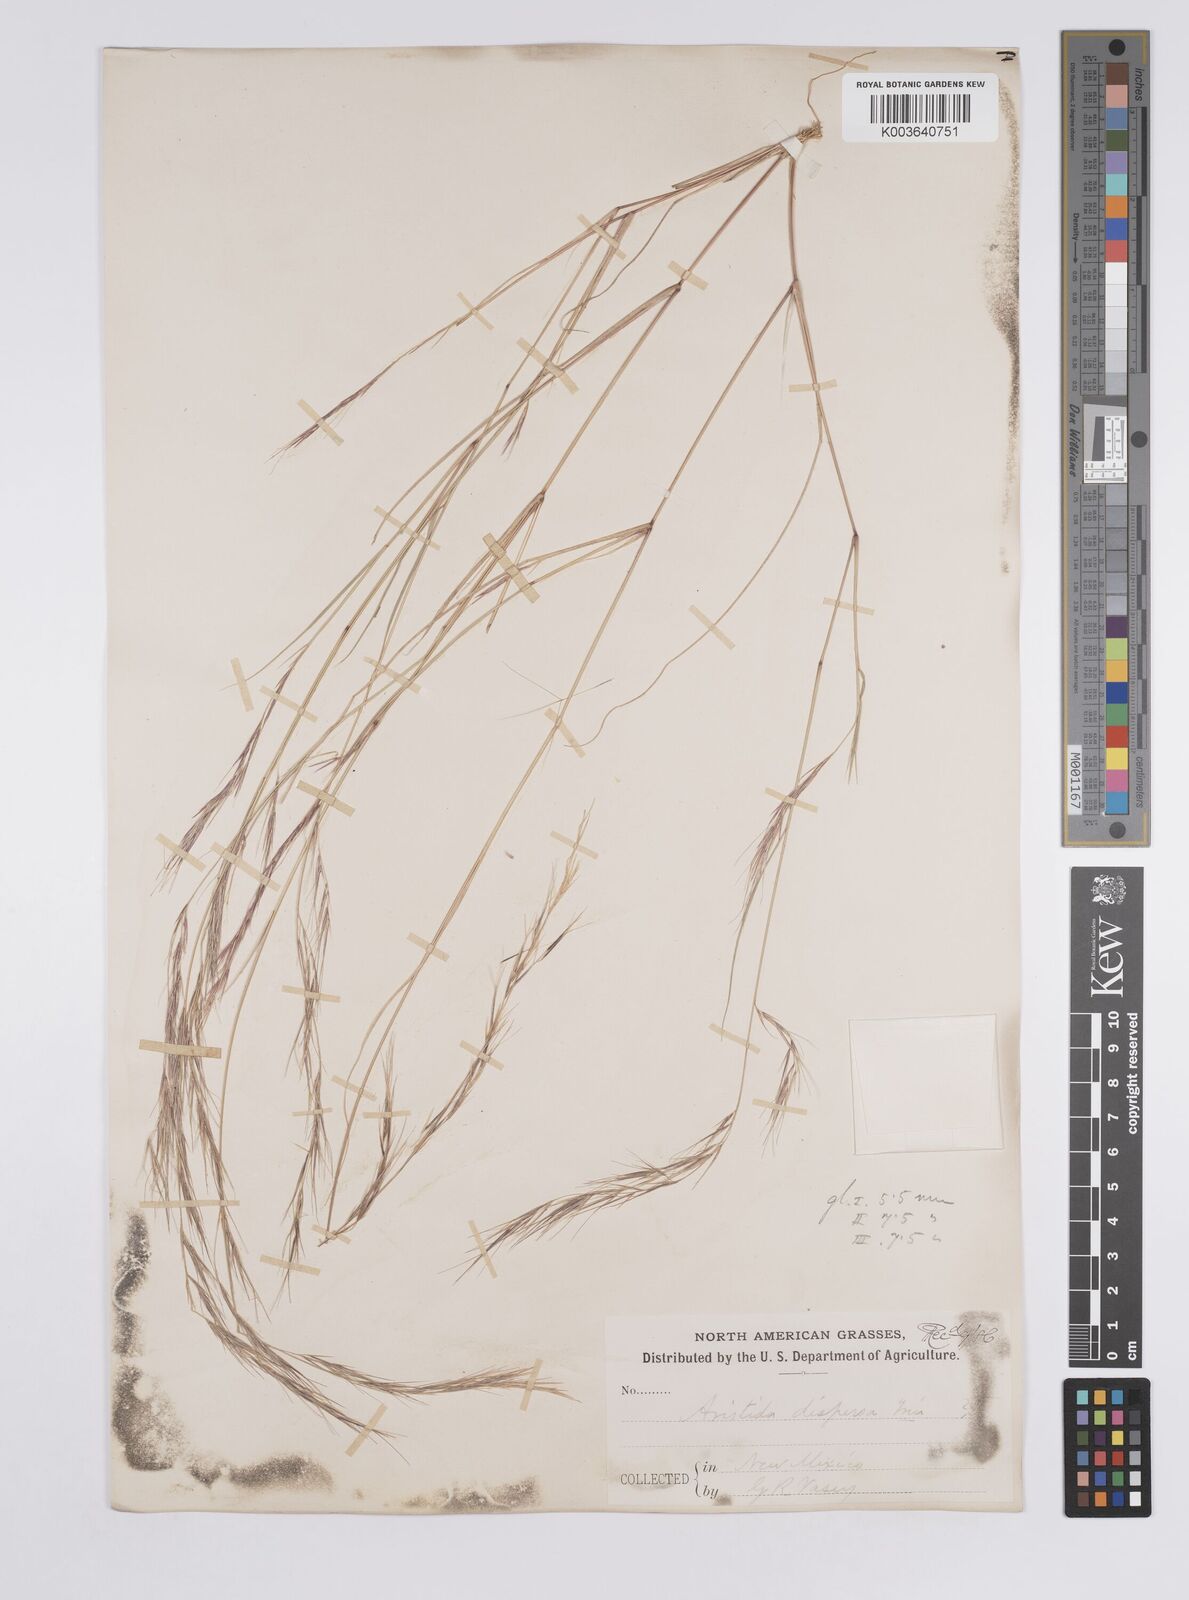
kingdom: Plantae
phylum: Tracheophyta
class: Liliopsida
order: Poales
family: Poaceae
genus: Aristida
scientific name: Aristida adscensionis
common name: Sixweeks threeawn
